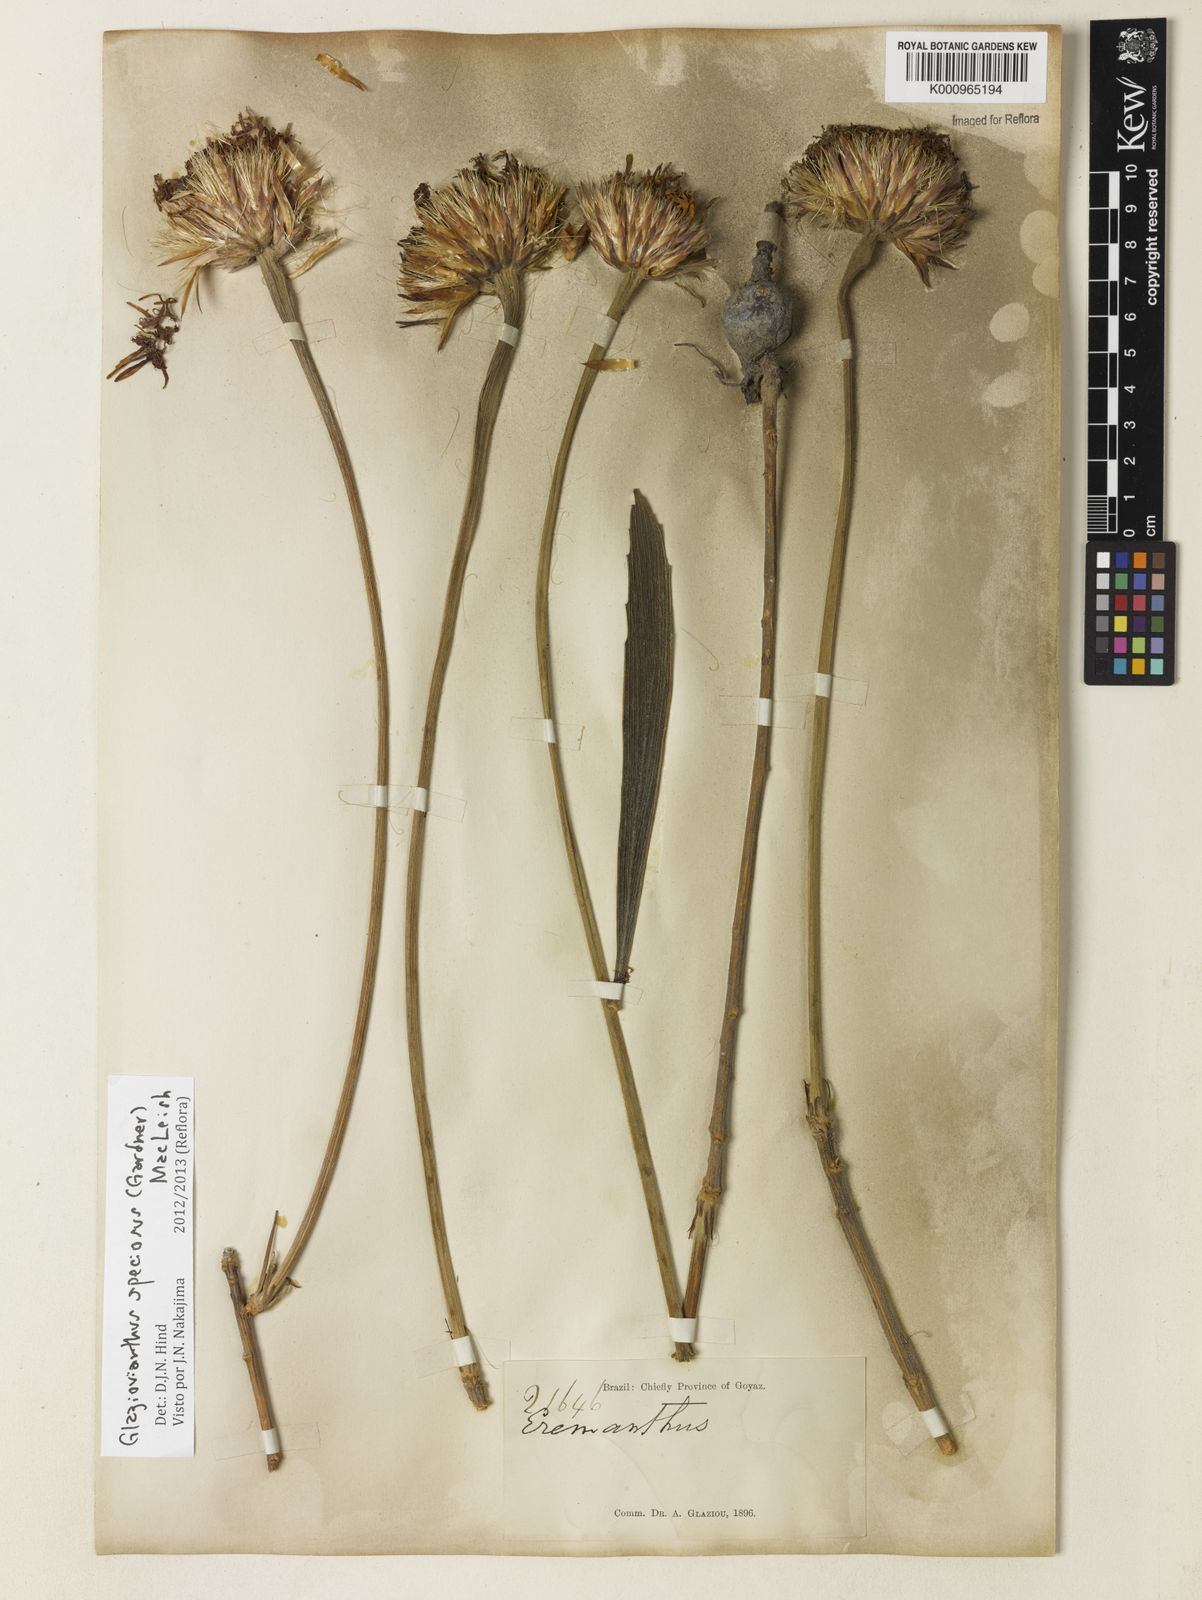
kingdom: Plantae
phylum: Tracheophyta
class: Magnoliopsida
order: Asterales
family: Asteraceae
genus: Chresta
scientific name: Chresta speciosa
